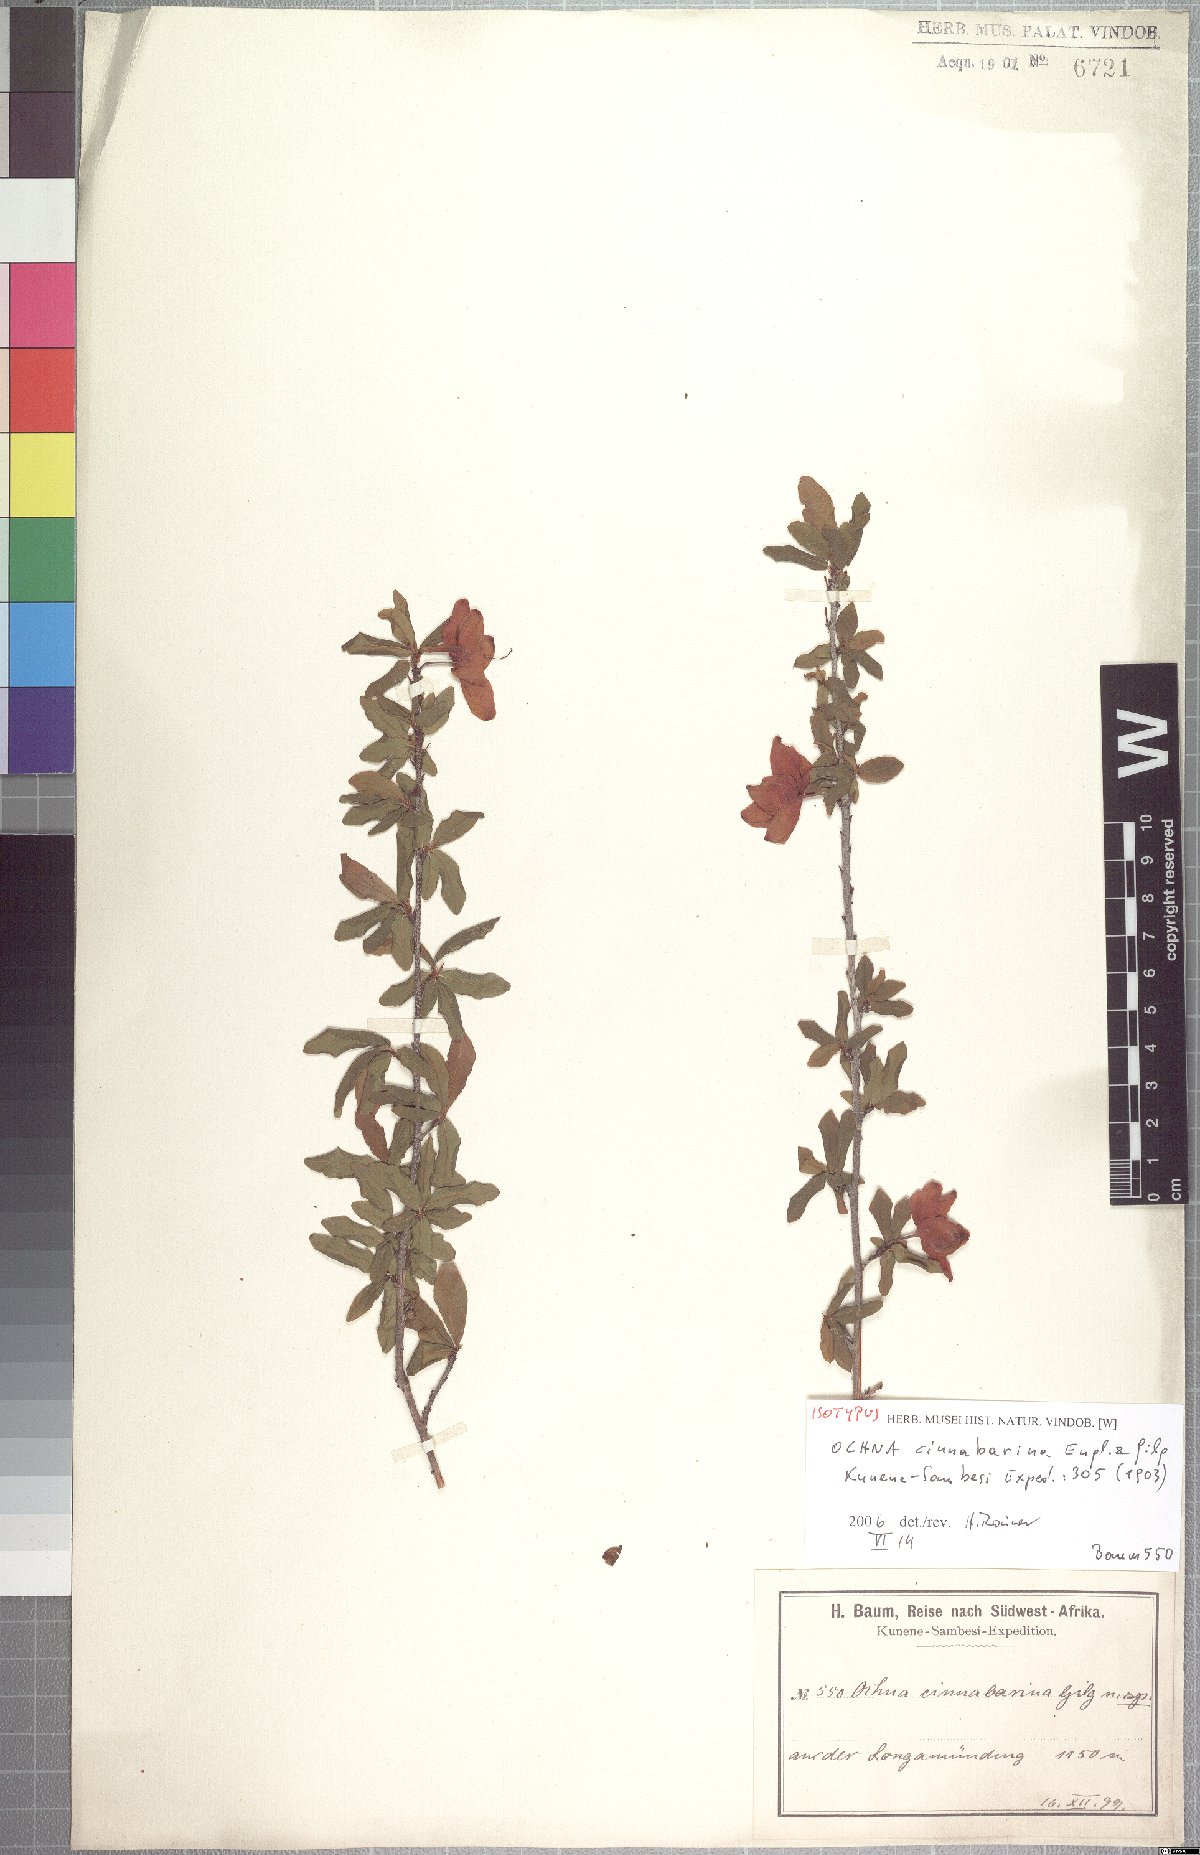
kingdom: Plantae
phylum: Tracheophyta
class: Magnoliopsida
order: Malpighiales
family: Ochnaceae
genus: Ochna
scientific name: Ochna cinnabarina
